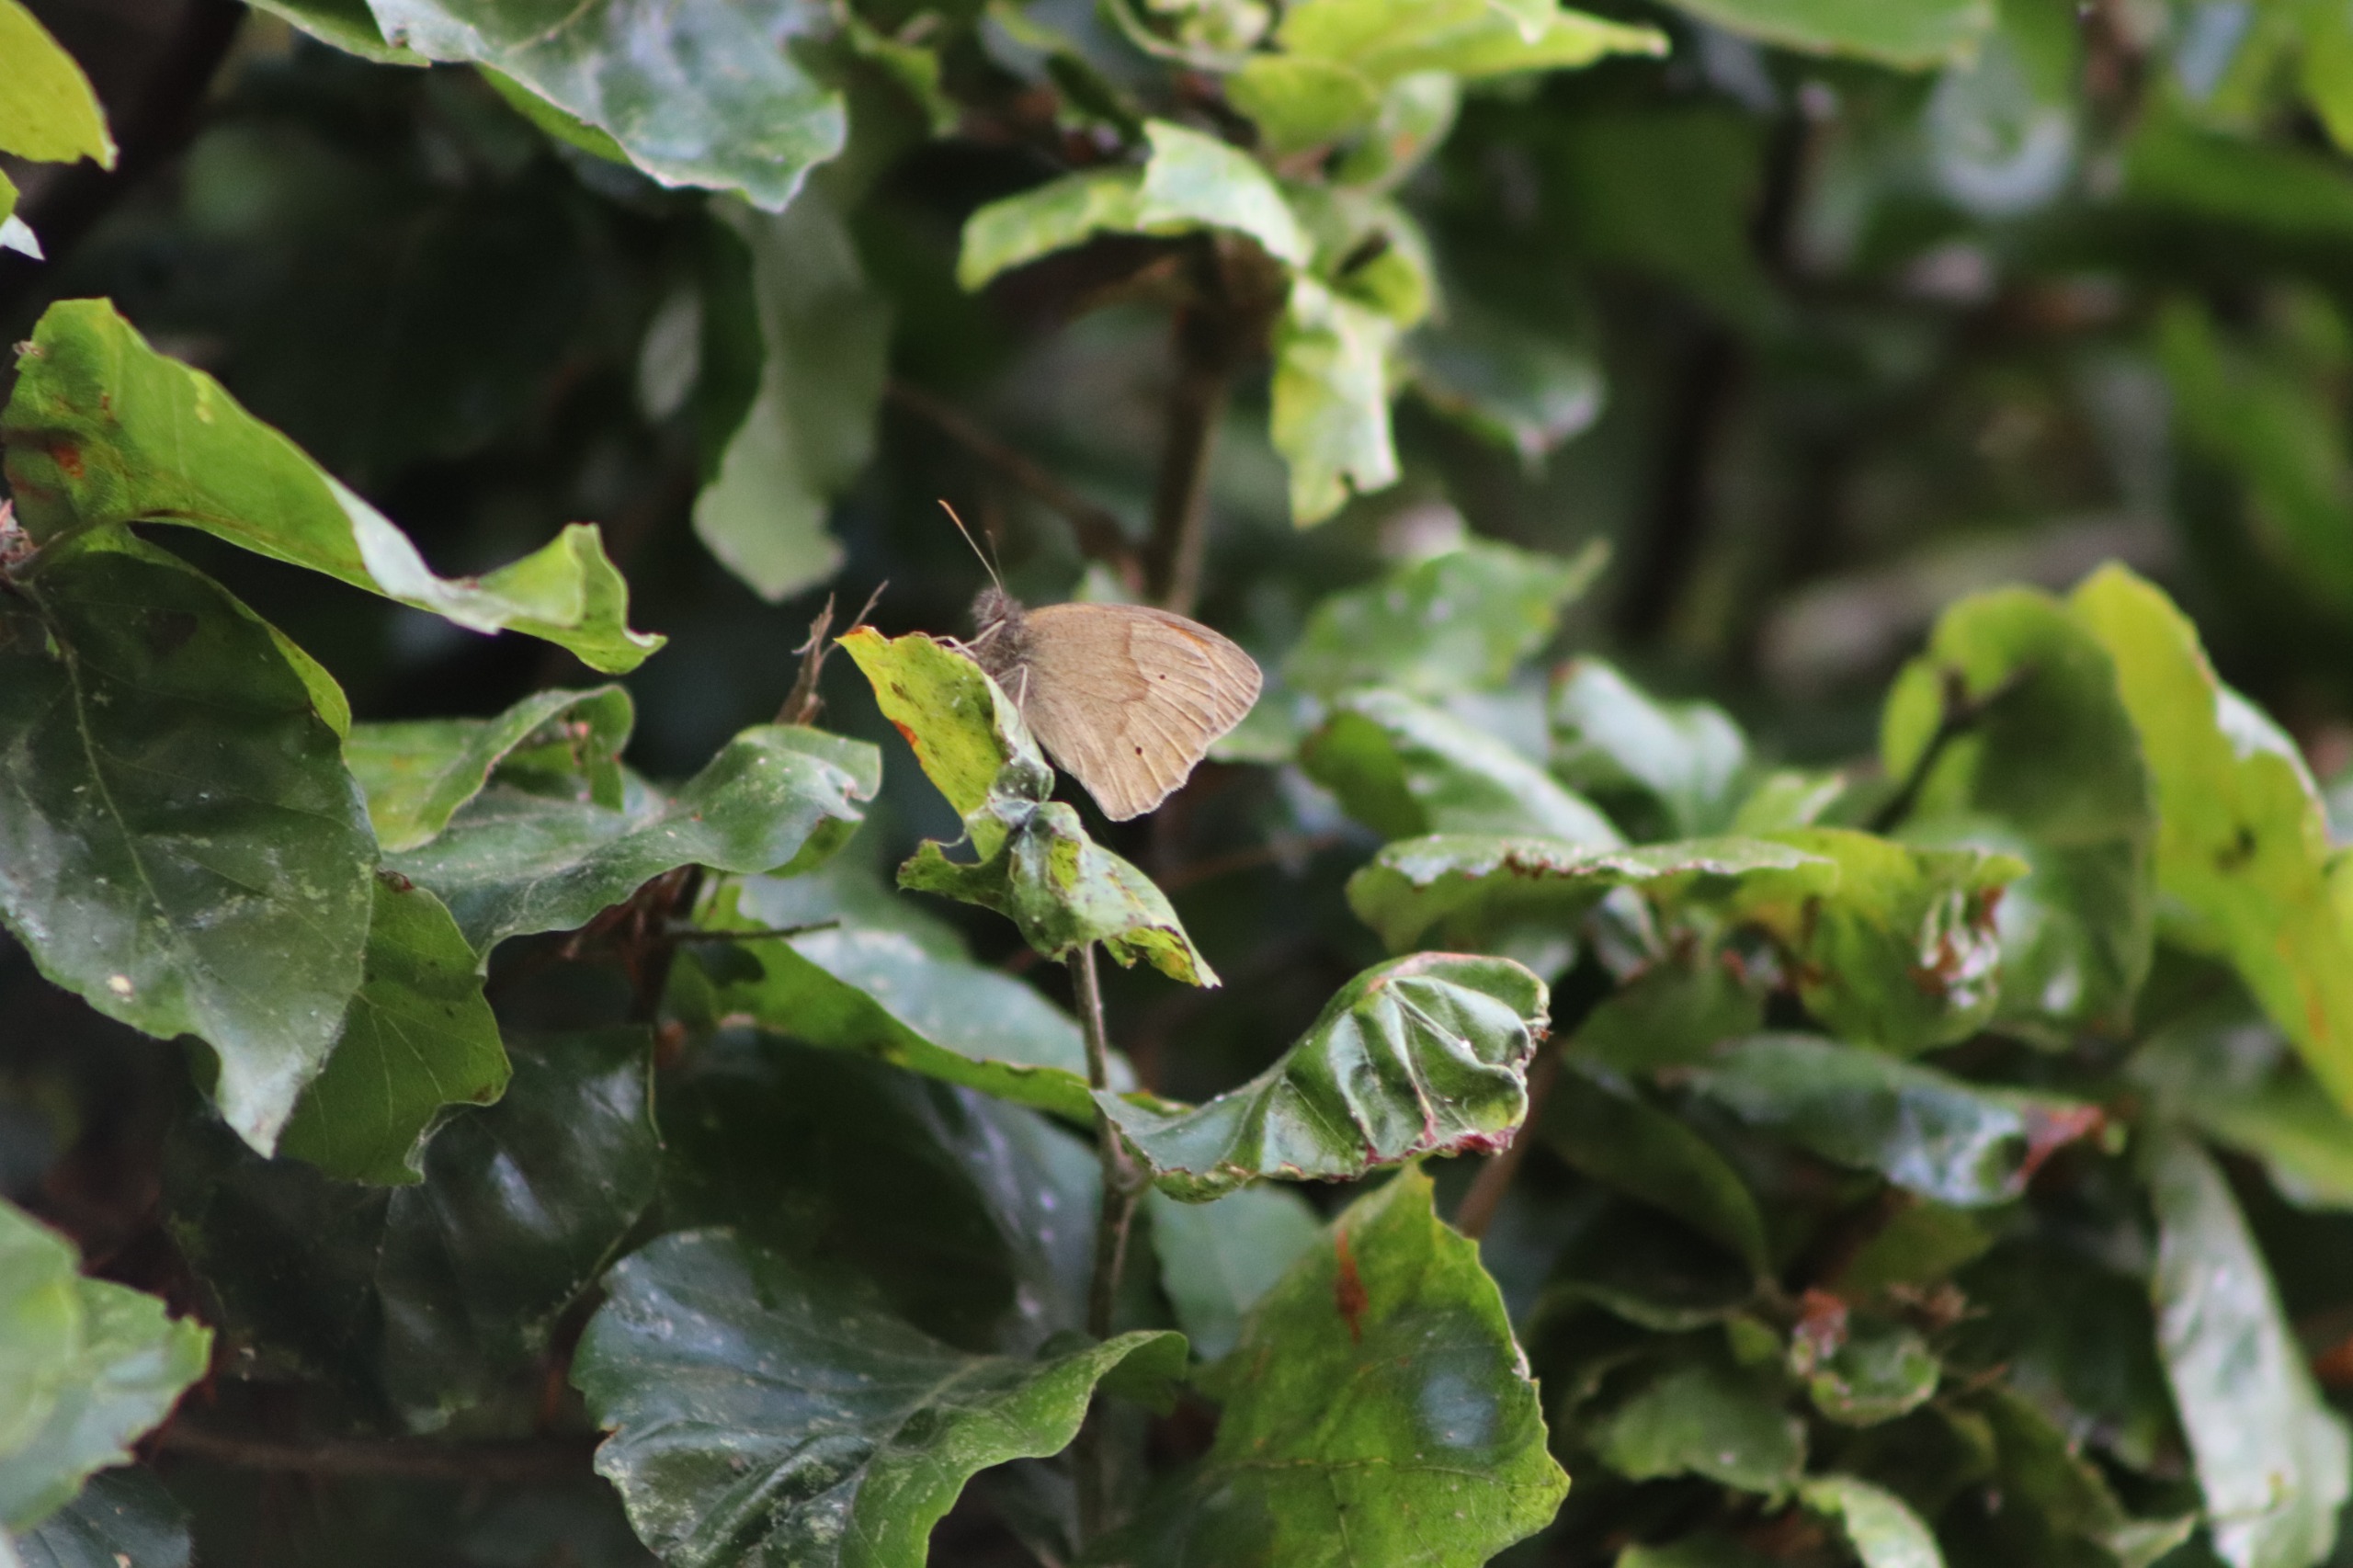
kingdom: Animalia
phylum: Arthropoda
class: Insecta
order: Lepidoptera
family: Nymphalidae
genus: Maniola
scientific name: Maniola jurtina
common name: Græsrandøje
